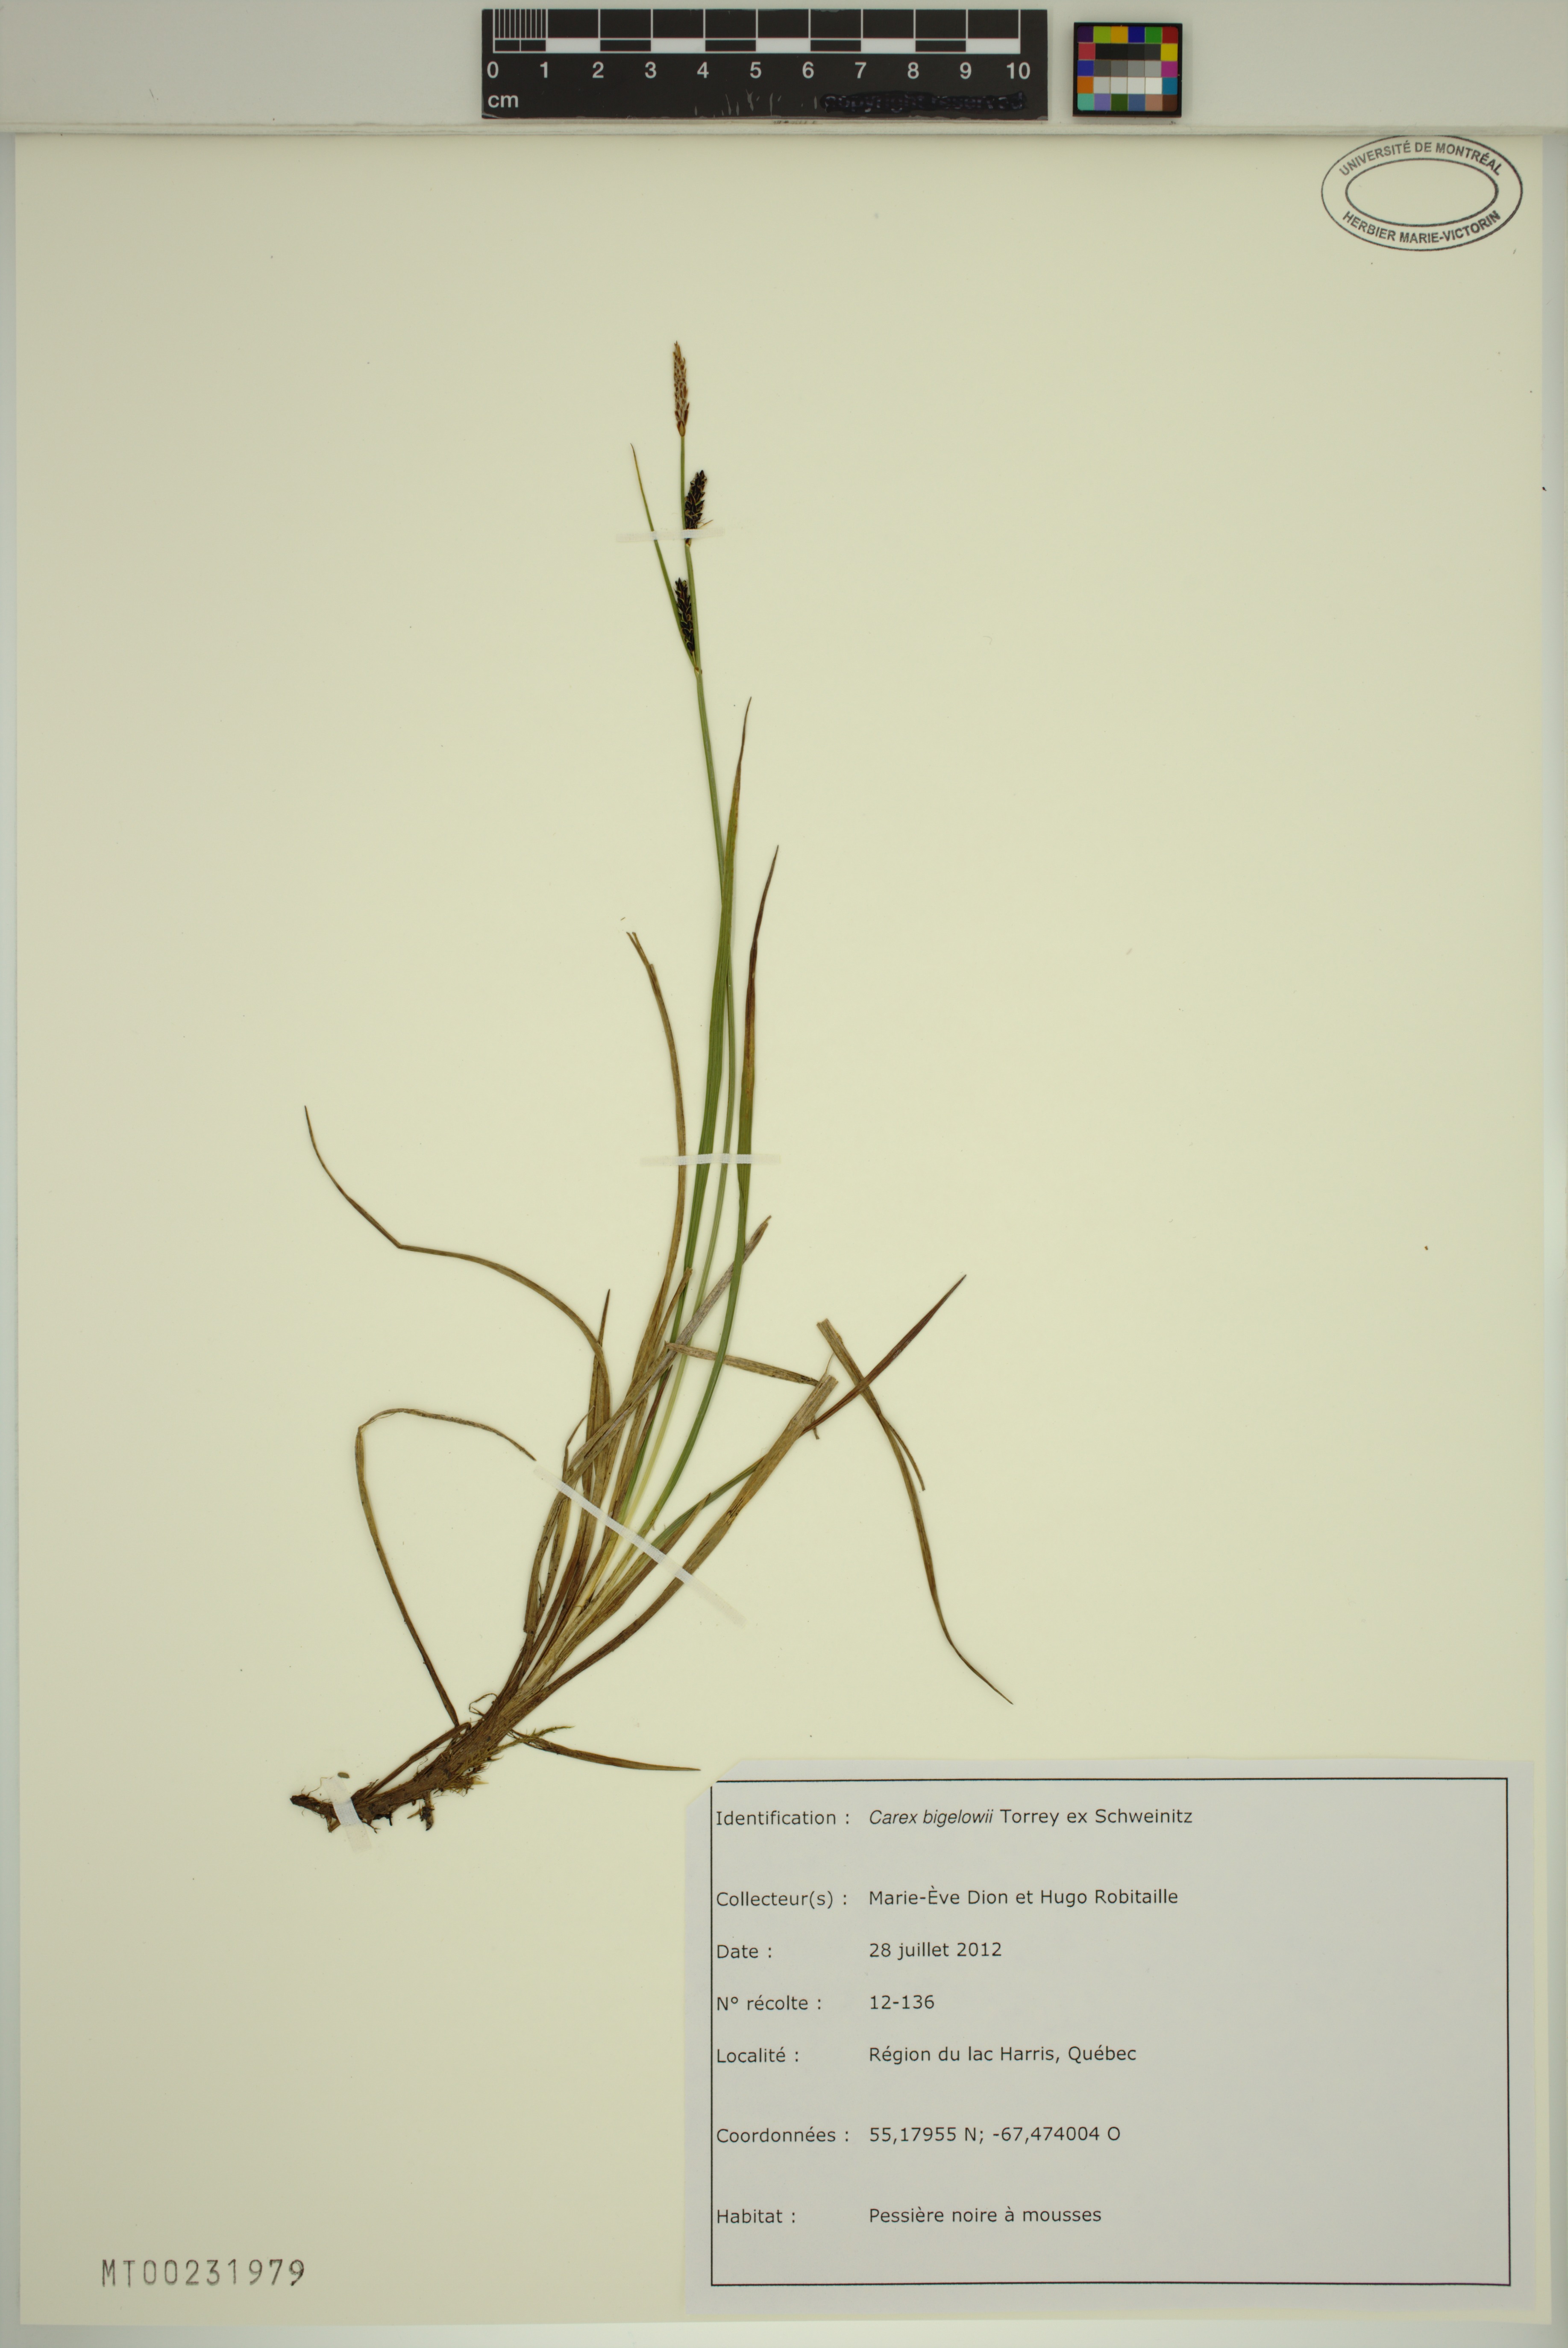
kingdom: Plantae
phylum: Tracheophyta
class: Liliopsida
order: Poales
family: Cyperaceae
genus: Carex
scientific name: Carex bigelowii
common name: Stiff sedge
